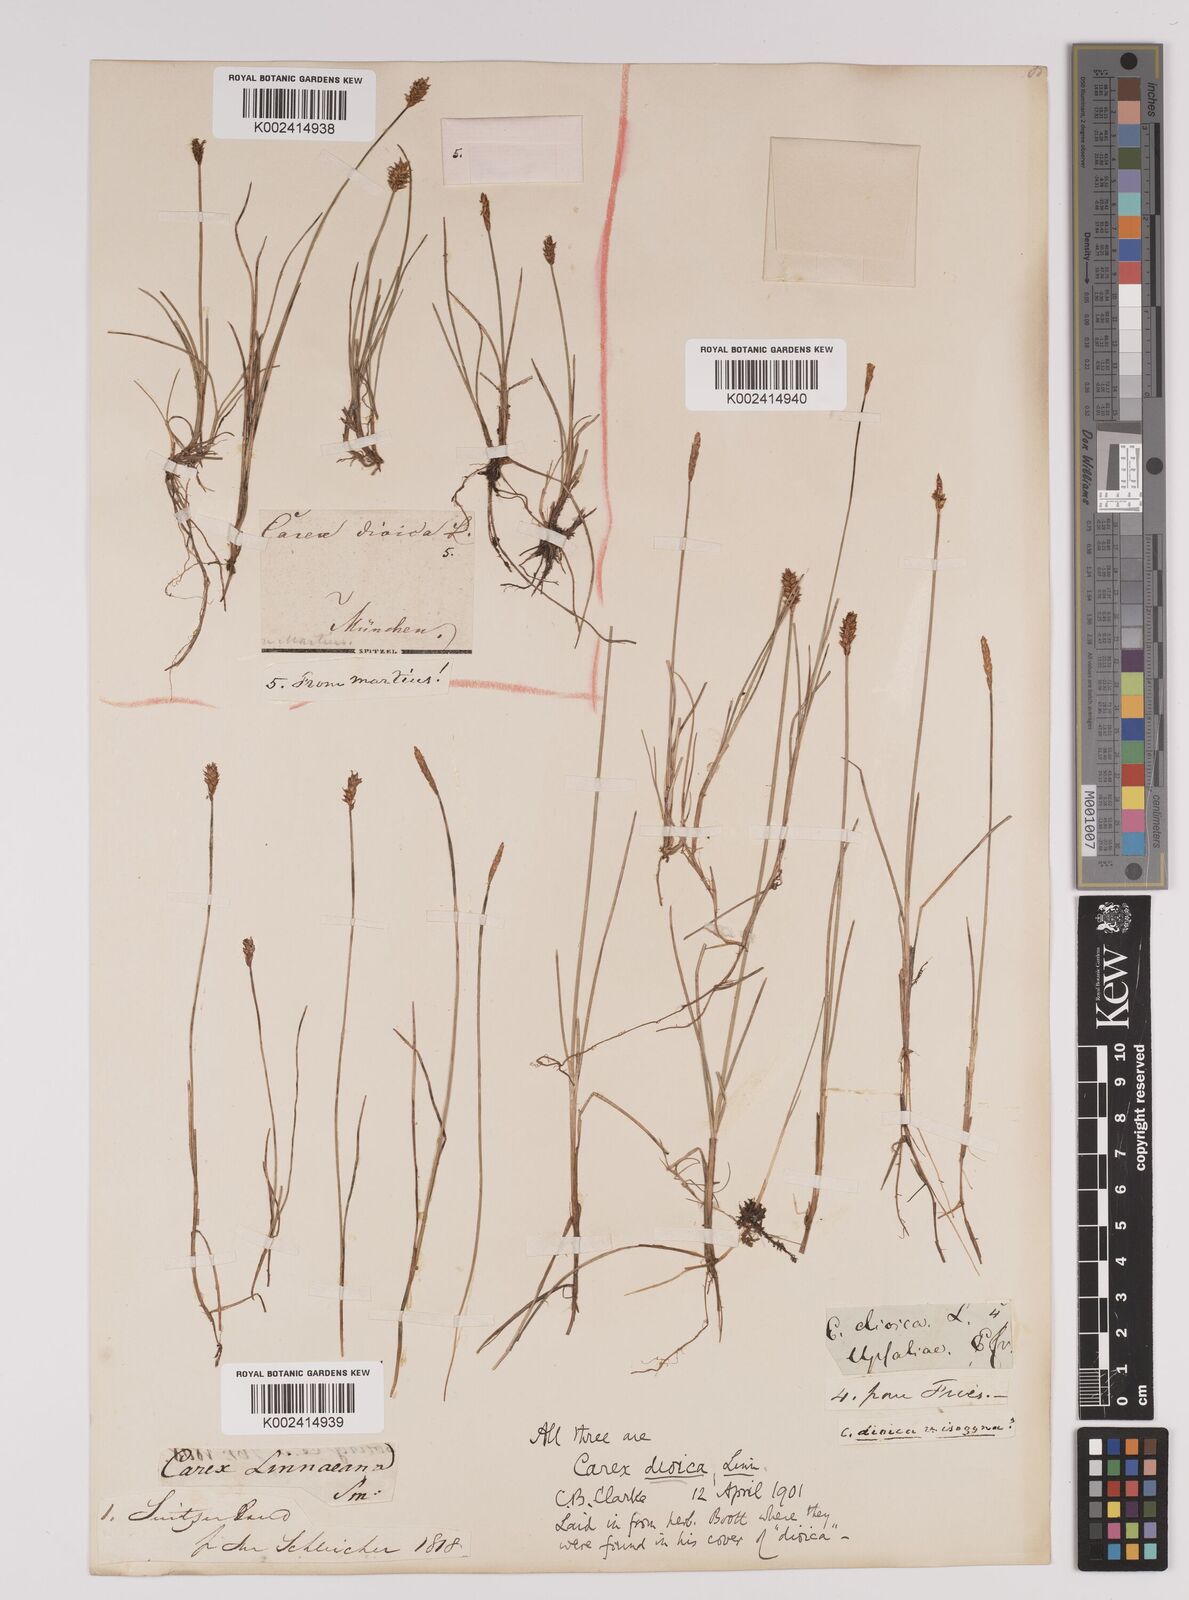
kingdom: Plantae
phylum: Tracheophyta
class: Liliopsida
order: Poales
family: Cyperaceae
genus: Carex
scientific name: Carex dioica
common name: Dioecious sedge
